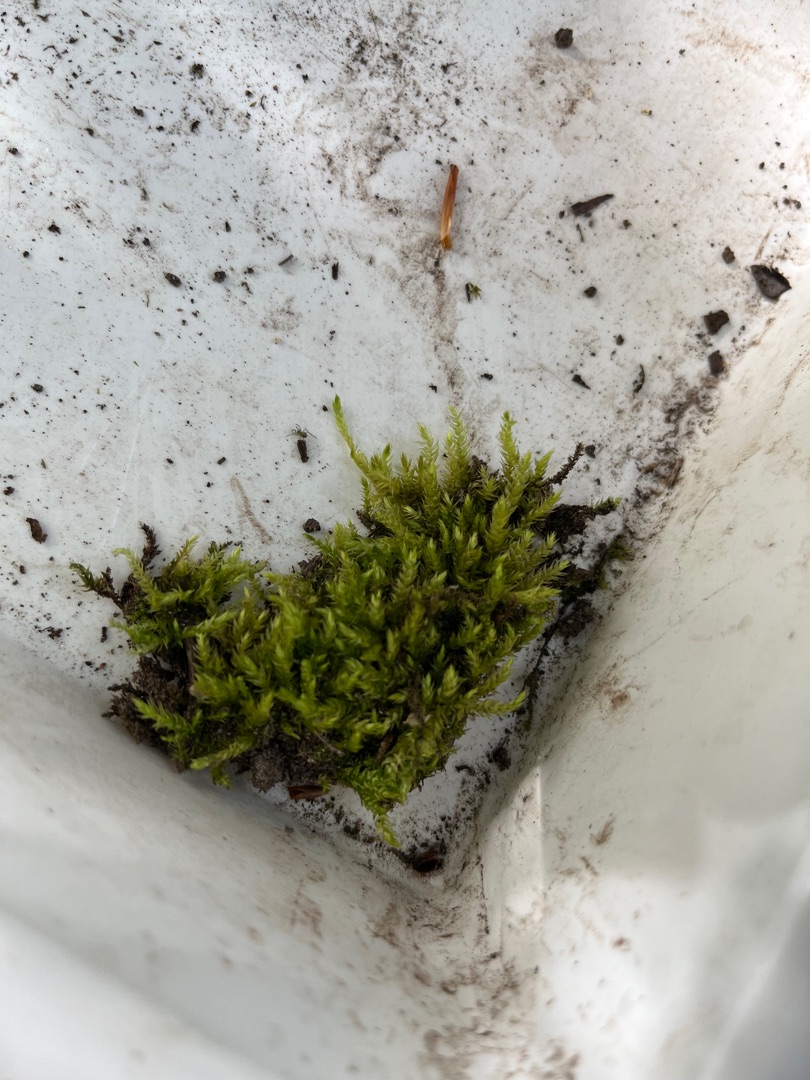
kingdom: Plantae
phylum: Bryophyta
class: Bryopsida
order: Hypnales
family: Brachytheciaceae
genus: Brachythecium
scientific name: Brachythecium rutabulum
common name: Almindelig kortkapsel
